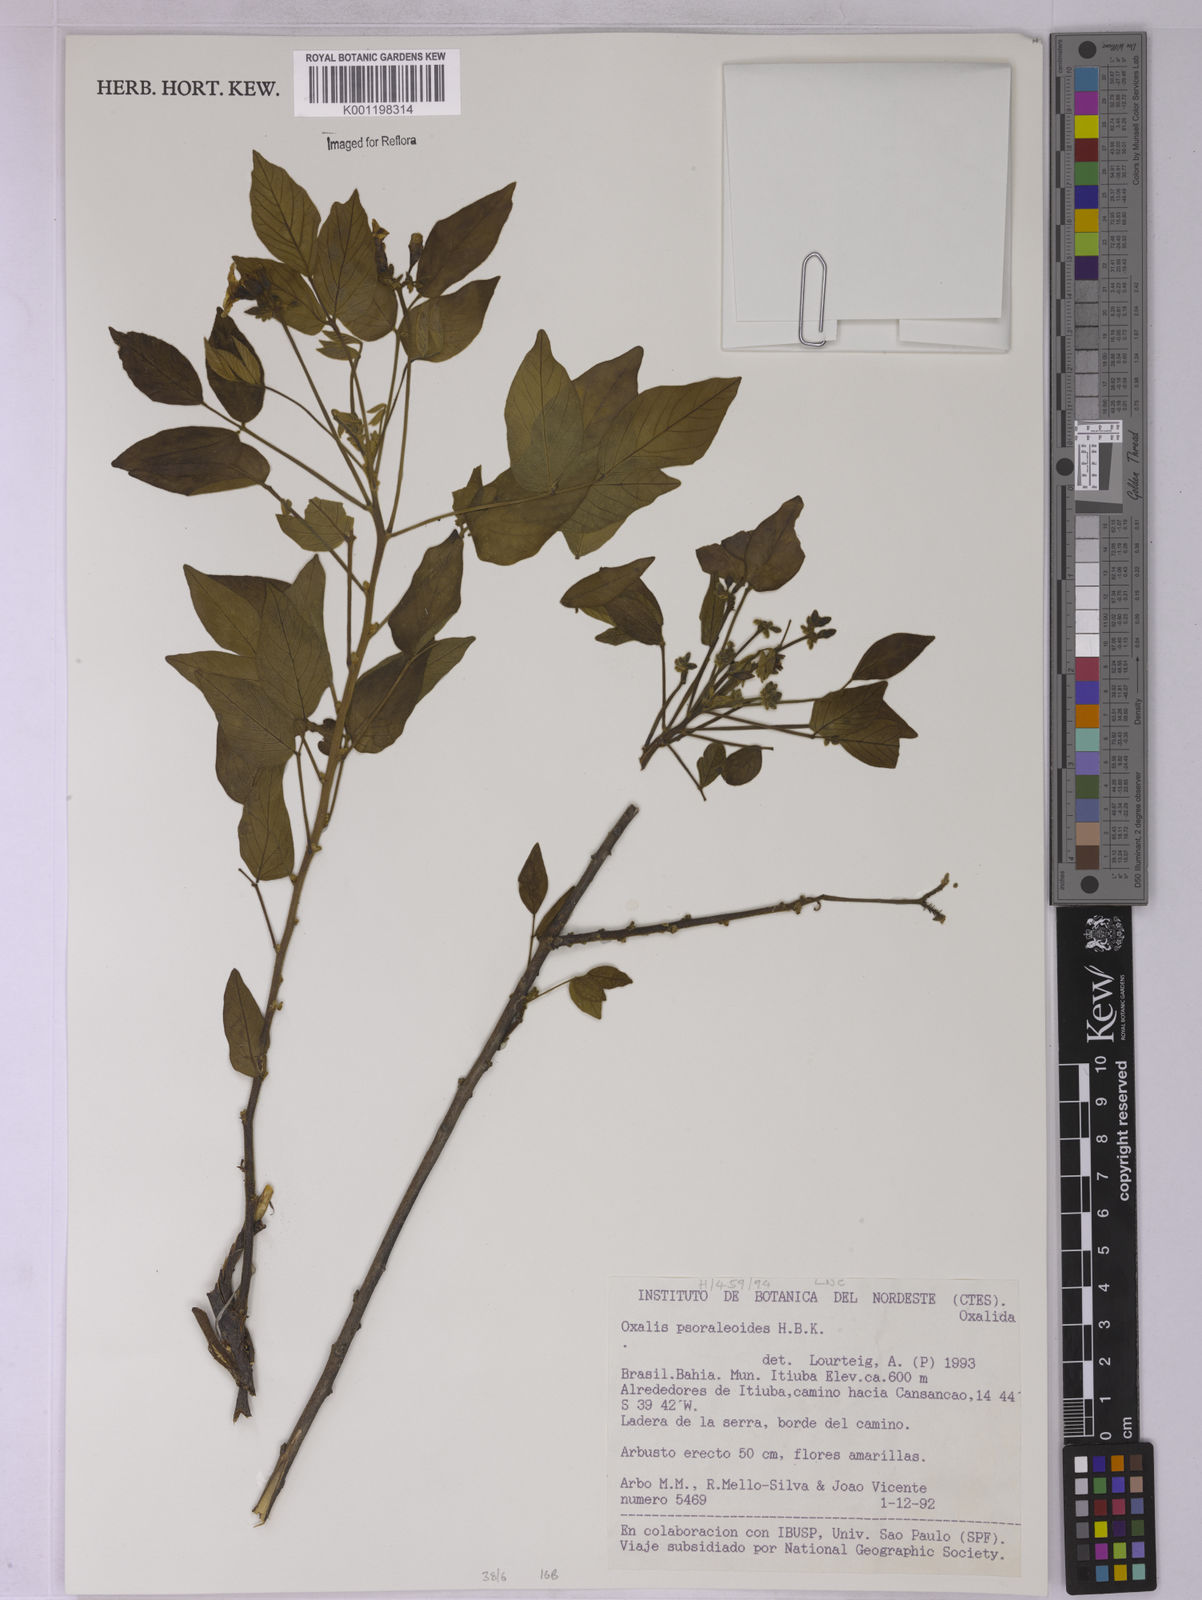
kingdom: Plantae
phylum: Tracheophyta
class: Magnoliopsida
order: Oxalidales
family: Oxalidaceae
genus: Oxalis
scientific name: Oxalis psoraleoides
